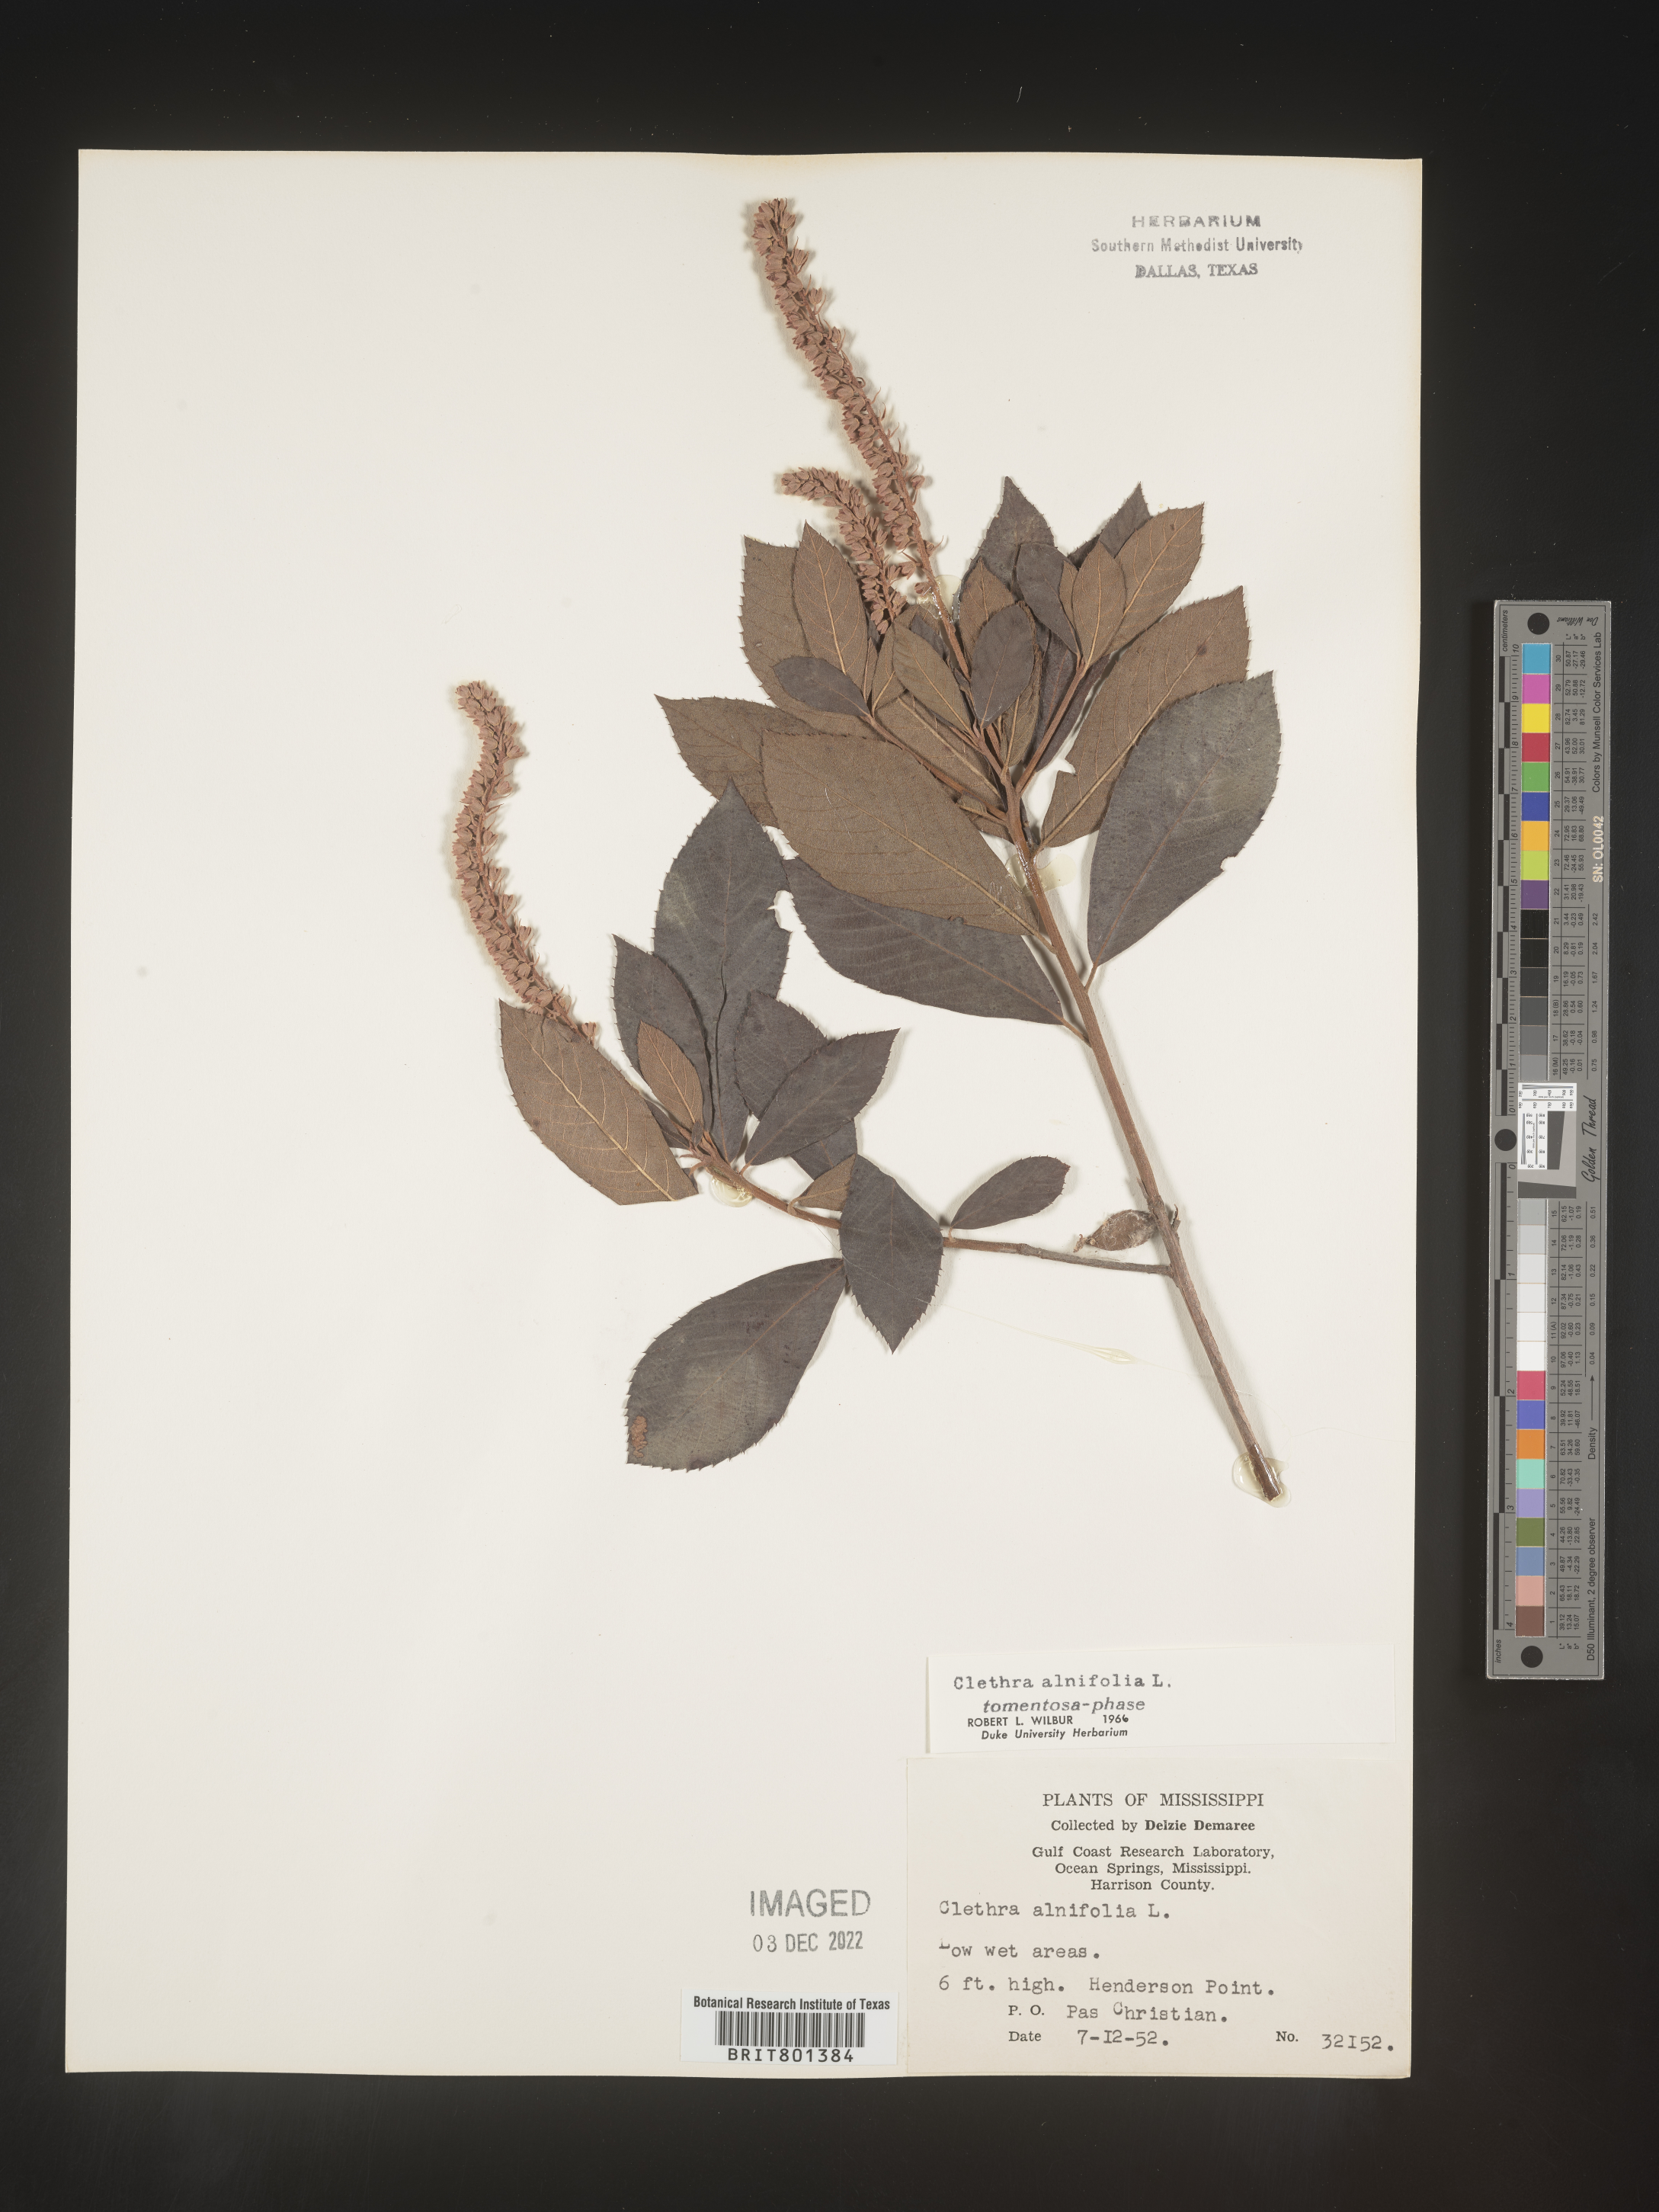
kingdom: Plantae
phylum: Tracheophyta
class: Magnoliopsida
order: Ericales
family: Clethraceae
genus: Clethra
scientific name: Clethra alnifolia
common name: Sweet pepperbush
